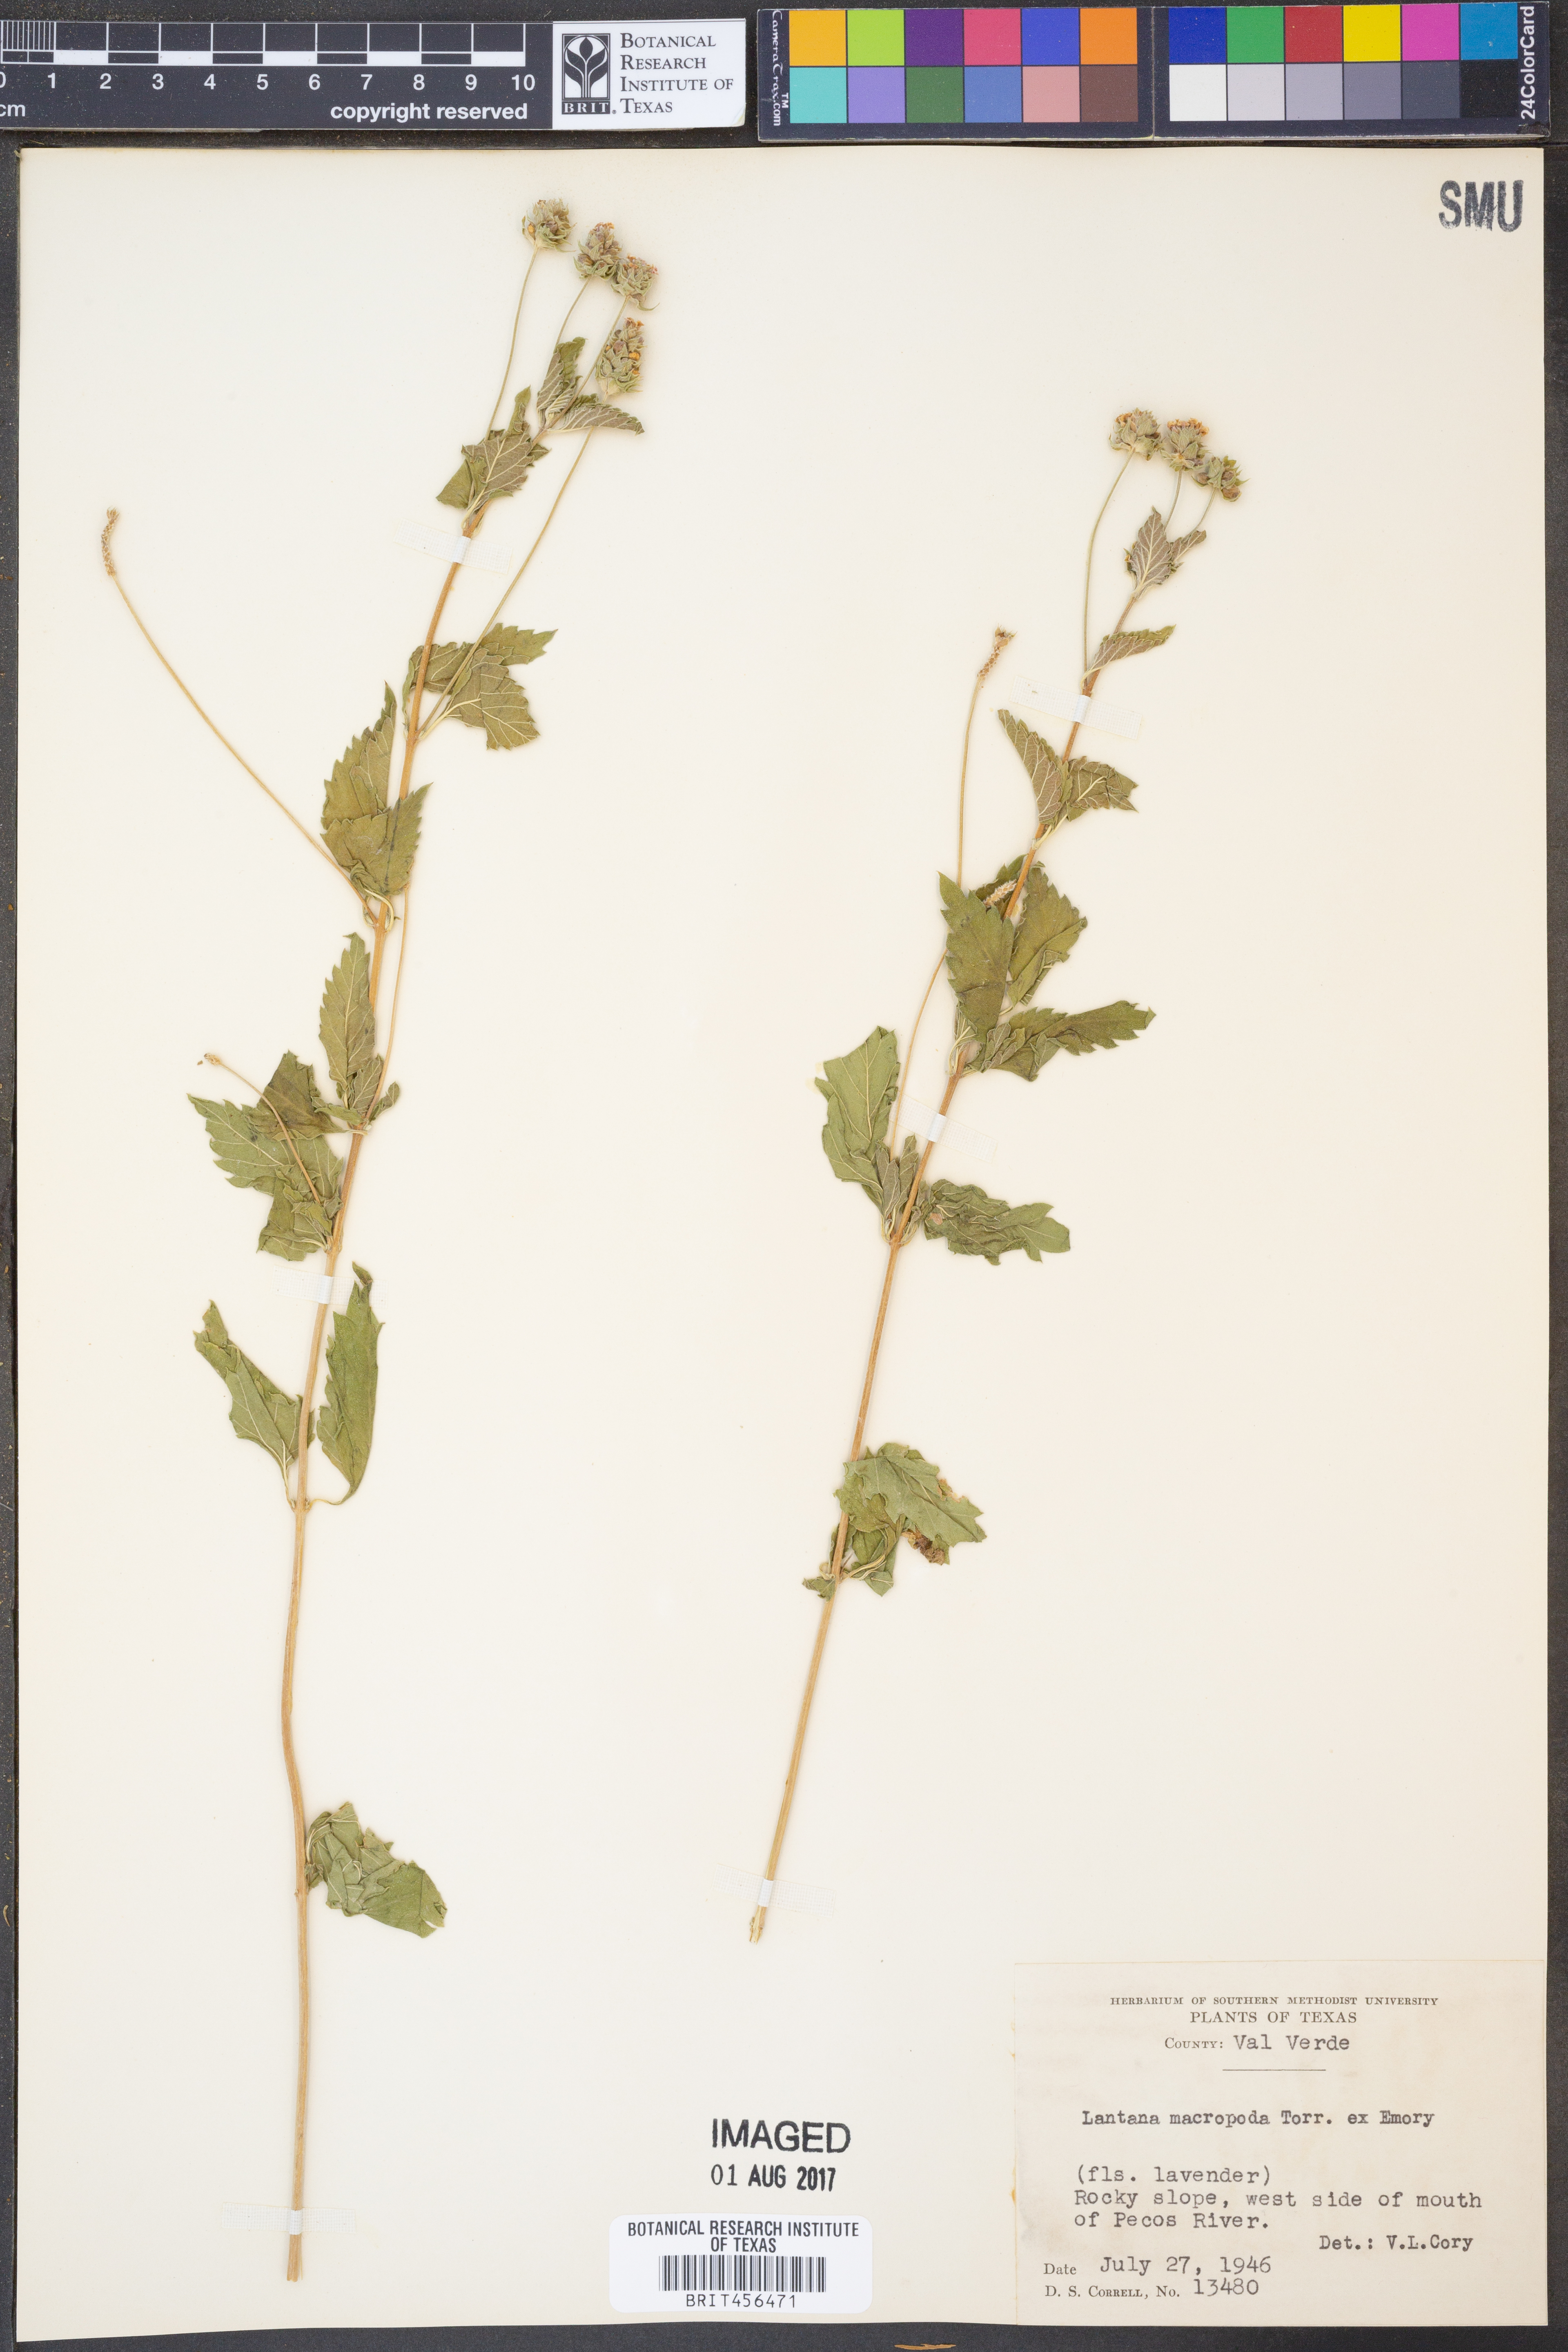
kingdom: Plantae
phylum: Tracheophyta
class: Magnoliopsida
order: Lamiales
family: Verbenaceae
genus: Lantana
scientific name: Lantana achyranthifolia
